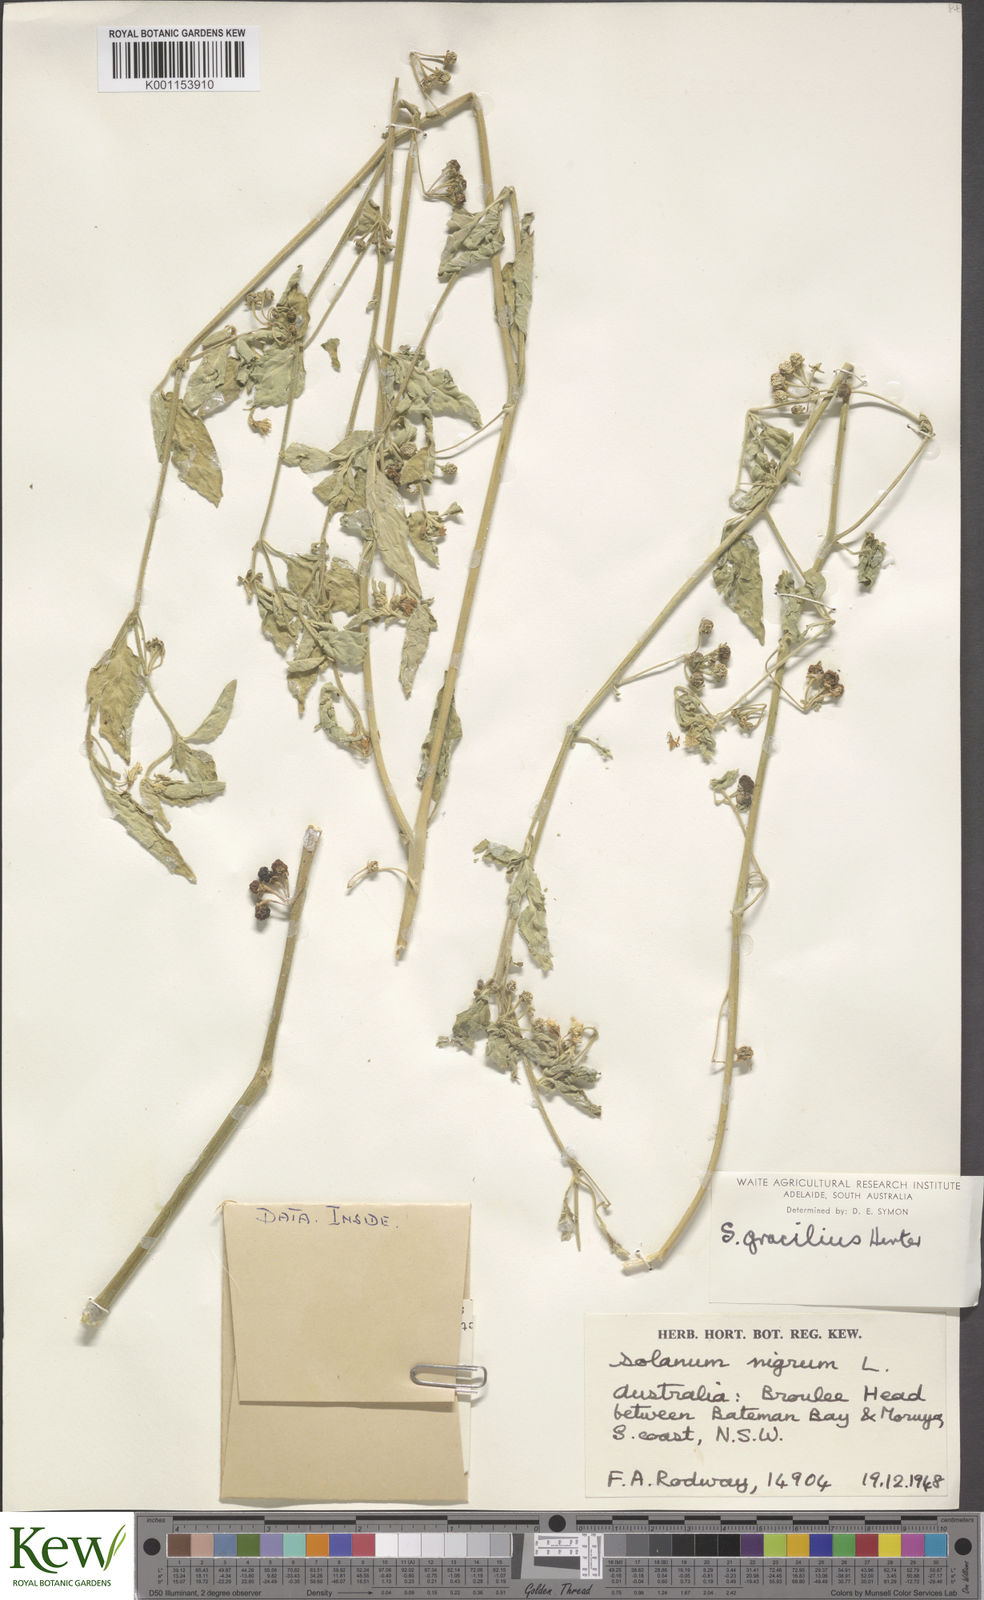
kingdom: Plantae
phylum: Tracheophyta
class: Magnoliopsida
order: Solanales
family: Solanaceae
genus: Solanum
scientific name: Solanum chenopodioides
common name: Tall nightshade
